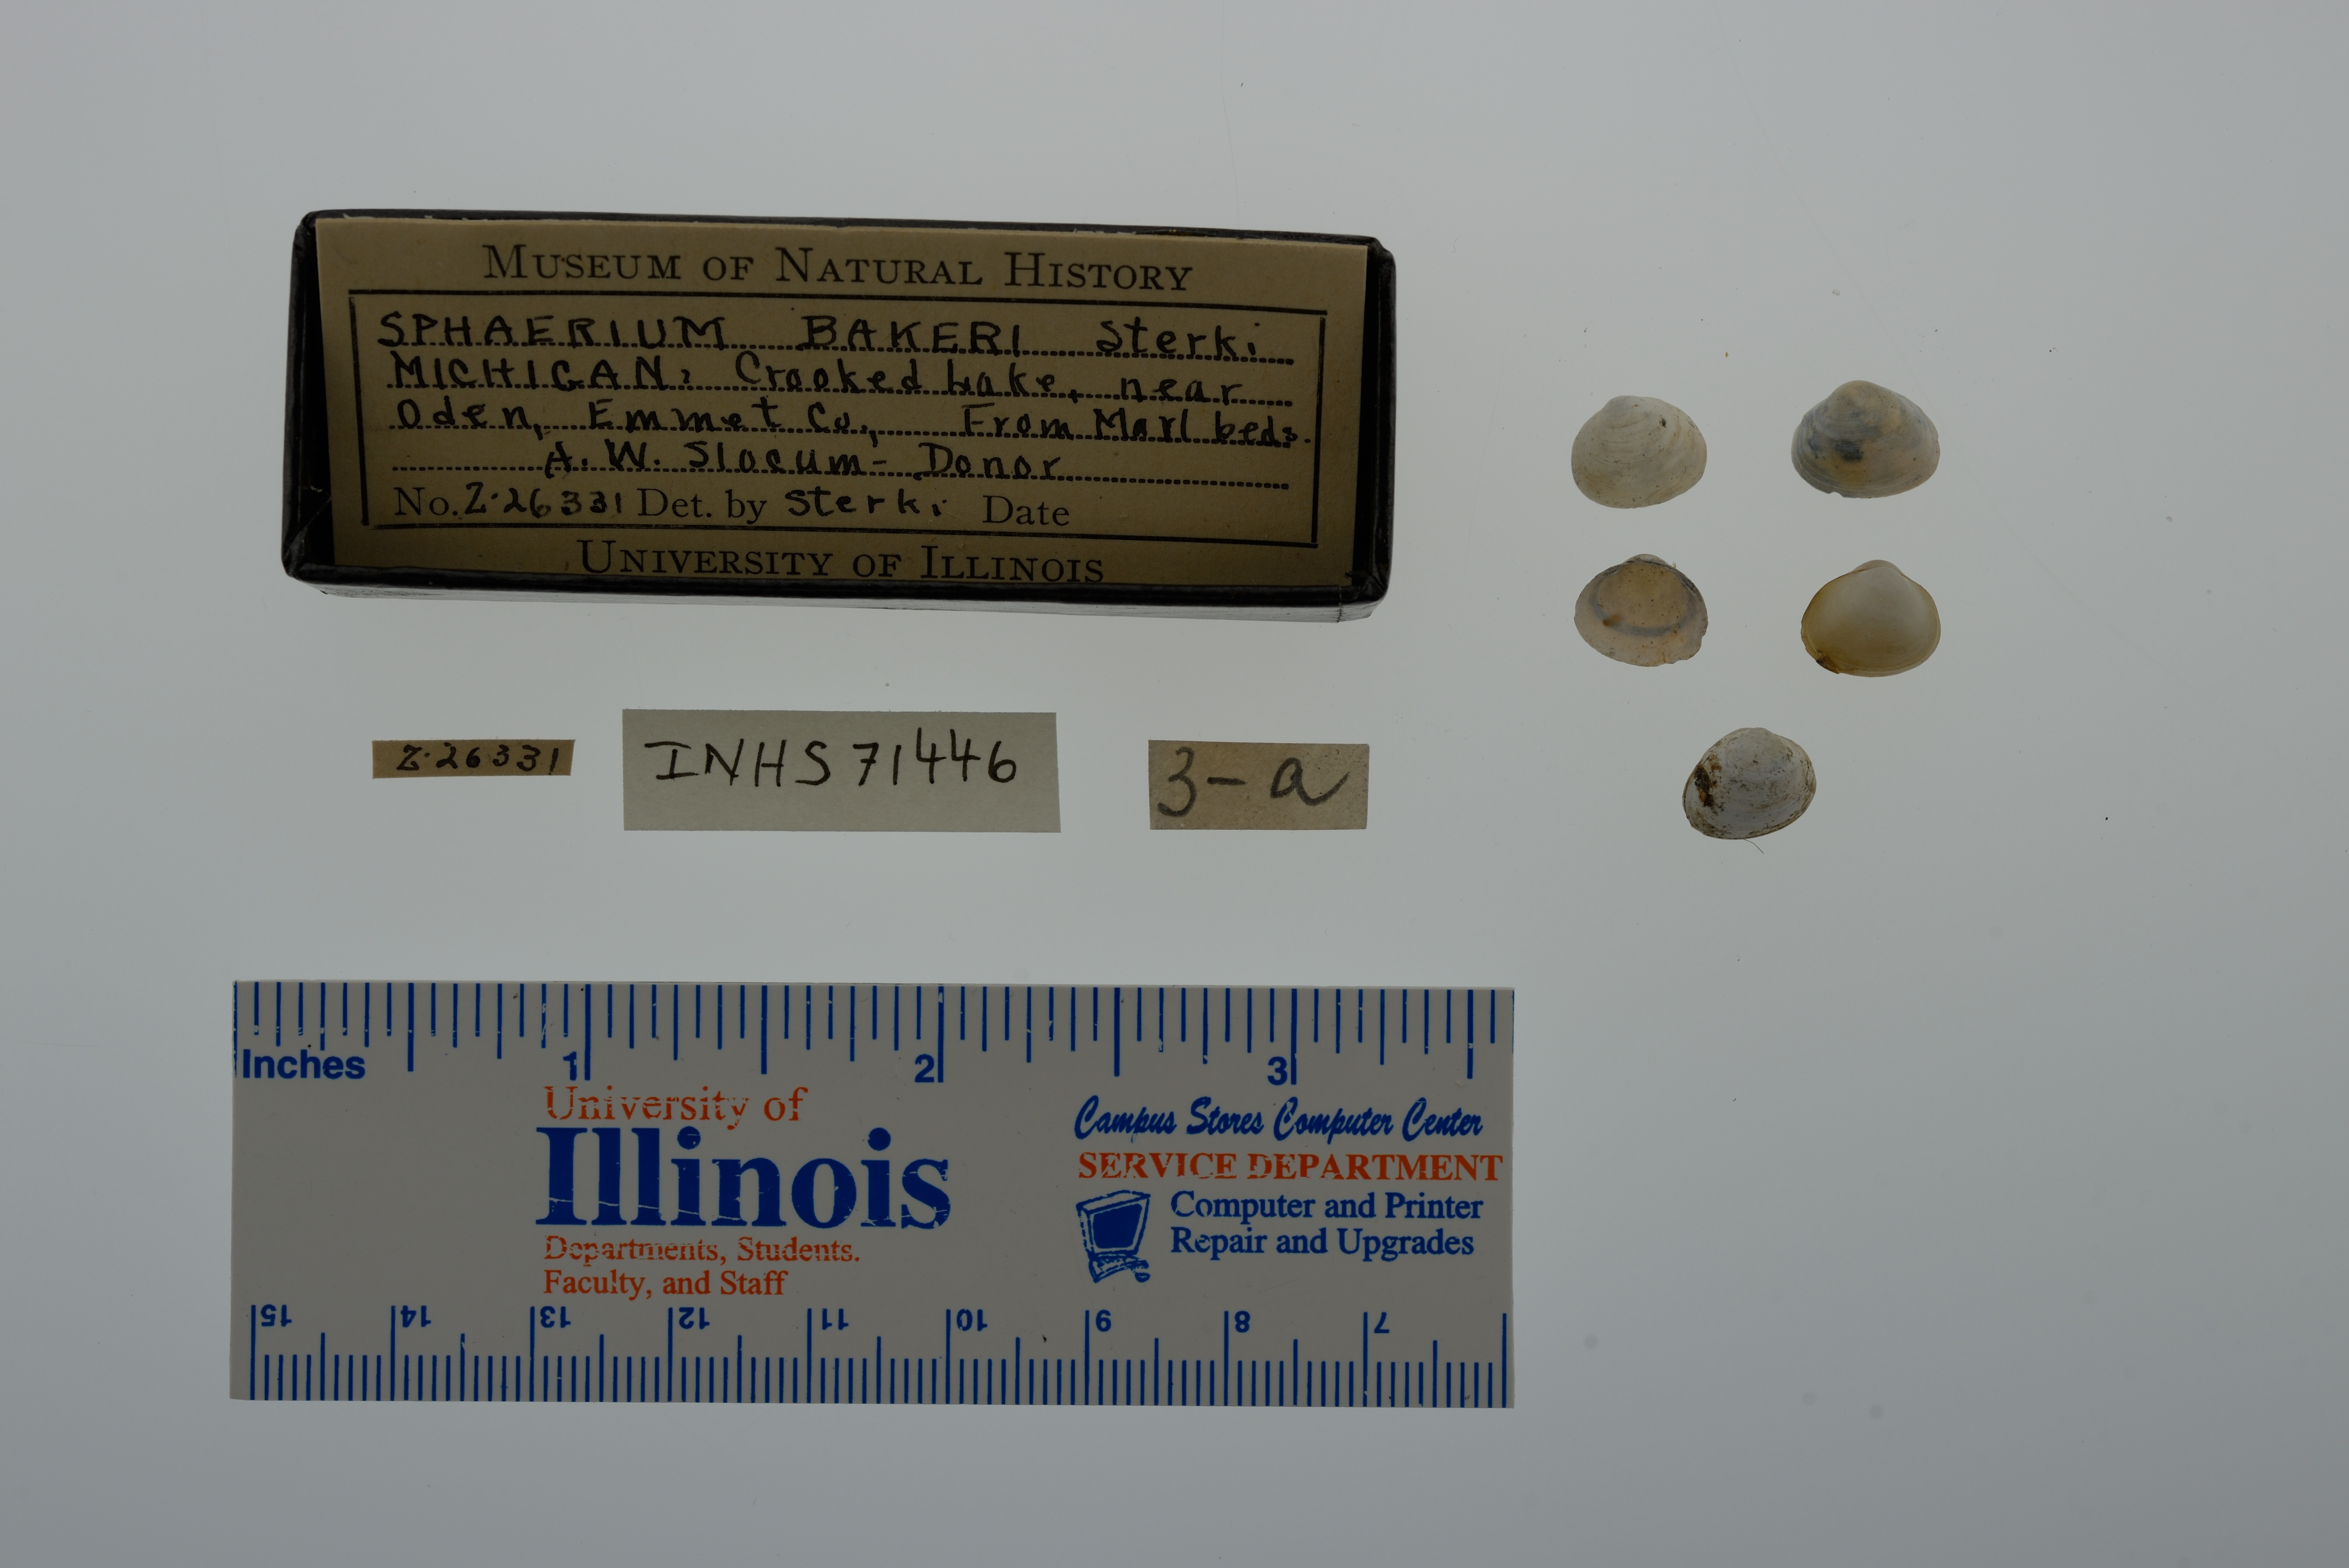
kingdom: Animalia
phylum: Mollusca
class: Bivalvia
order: Sphaeriida
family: Sphaeriidae
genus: Sphaerium
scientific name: Sphaerium striatinum
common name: Striated fingernailclam
